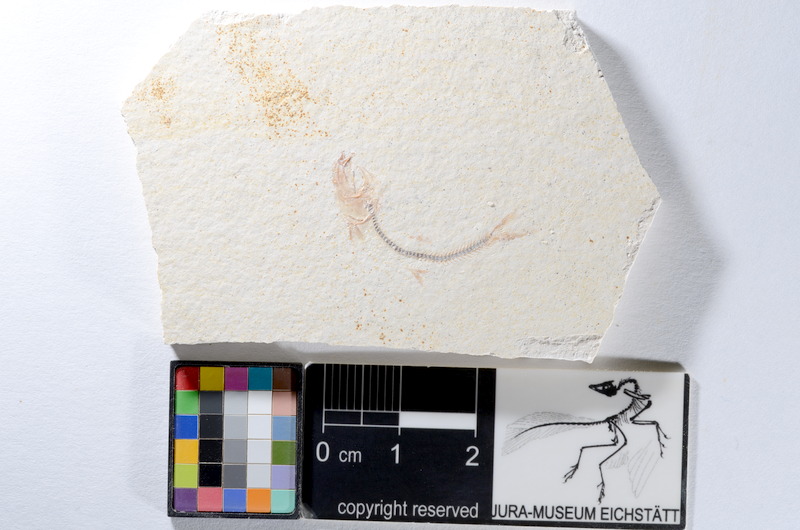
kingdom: Animalia
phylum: Chordata
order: Salmoniformes
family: Orthogonikleithridae
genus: Orthogonikleithrus
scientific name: Orthogonikleithrus hoelli
